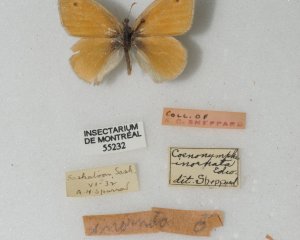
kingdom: Animalia
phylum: Arthropoda
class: Insecta
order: Lepidoptera
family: Nymphalidae
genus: Coenonympha
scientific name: Coenonympha tullia
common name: Large Heath
